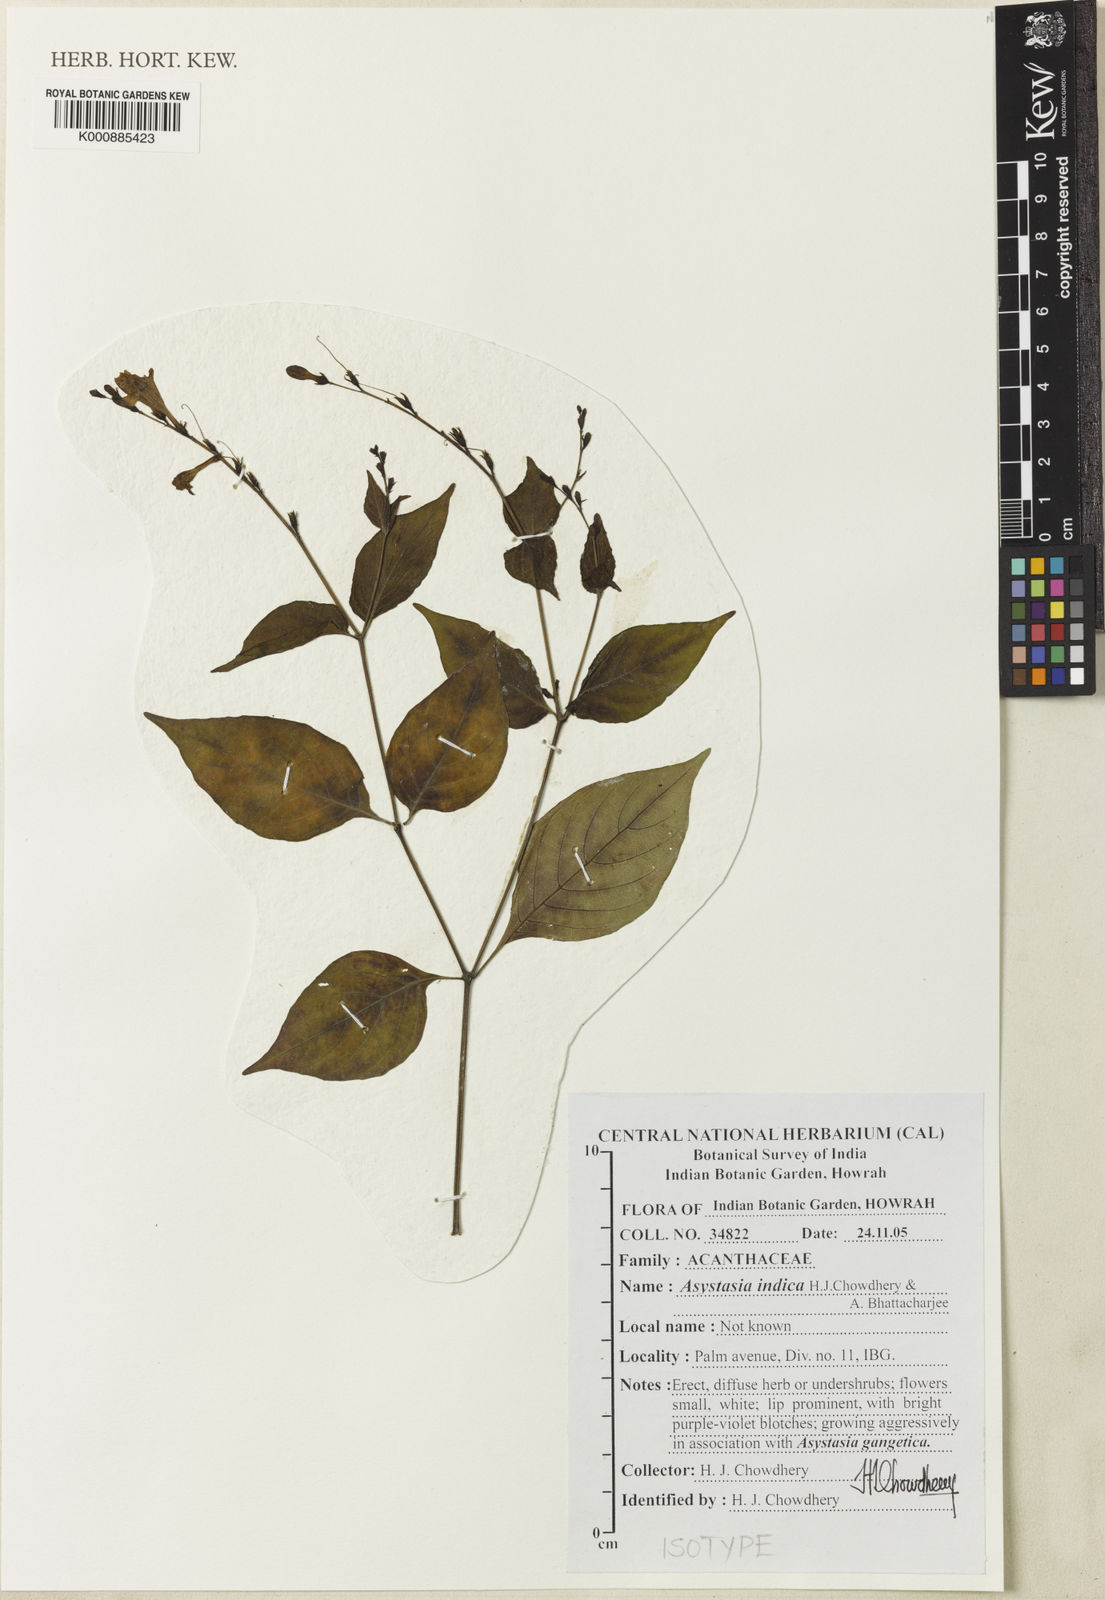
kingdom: Plantae
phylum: Tracheophyta
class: Magnoliopsida
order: Lamiales
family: Acanthaceae
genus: Asystasia
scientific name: Asystasia gangetica
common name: Chinese violet
